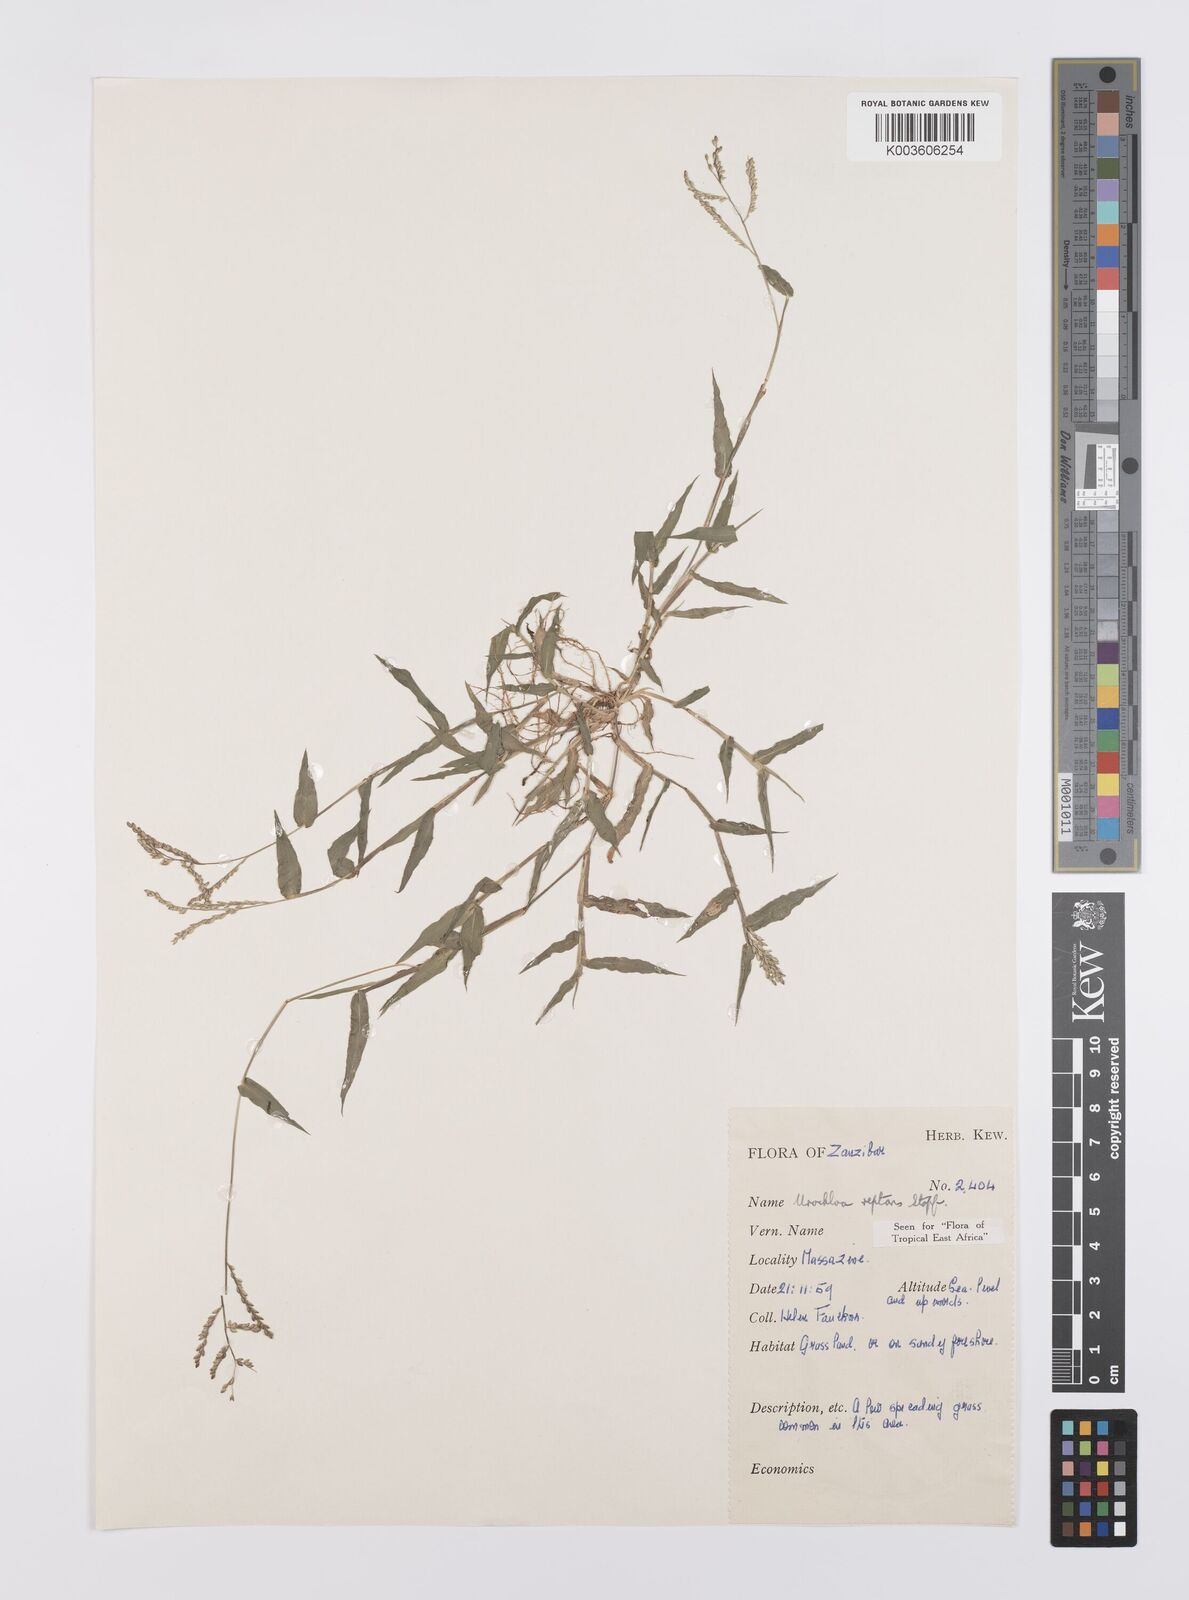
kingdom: Plantae
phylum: Tracheophyta
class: Liliopsida
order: Poales
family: Poaceae
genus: Urochloa
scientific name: Urochloa reptans
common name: Sprawling signalgrass
